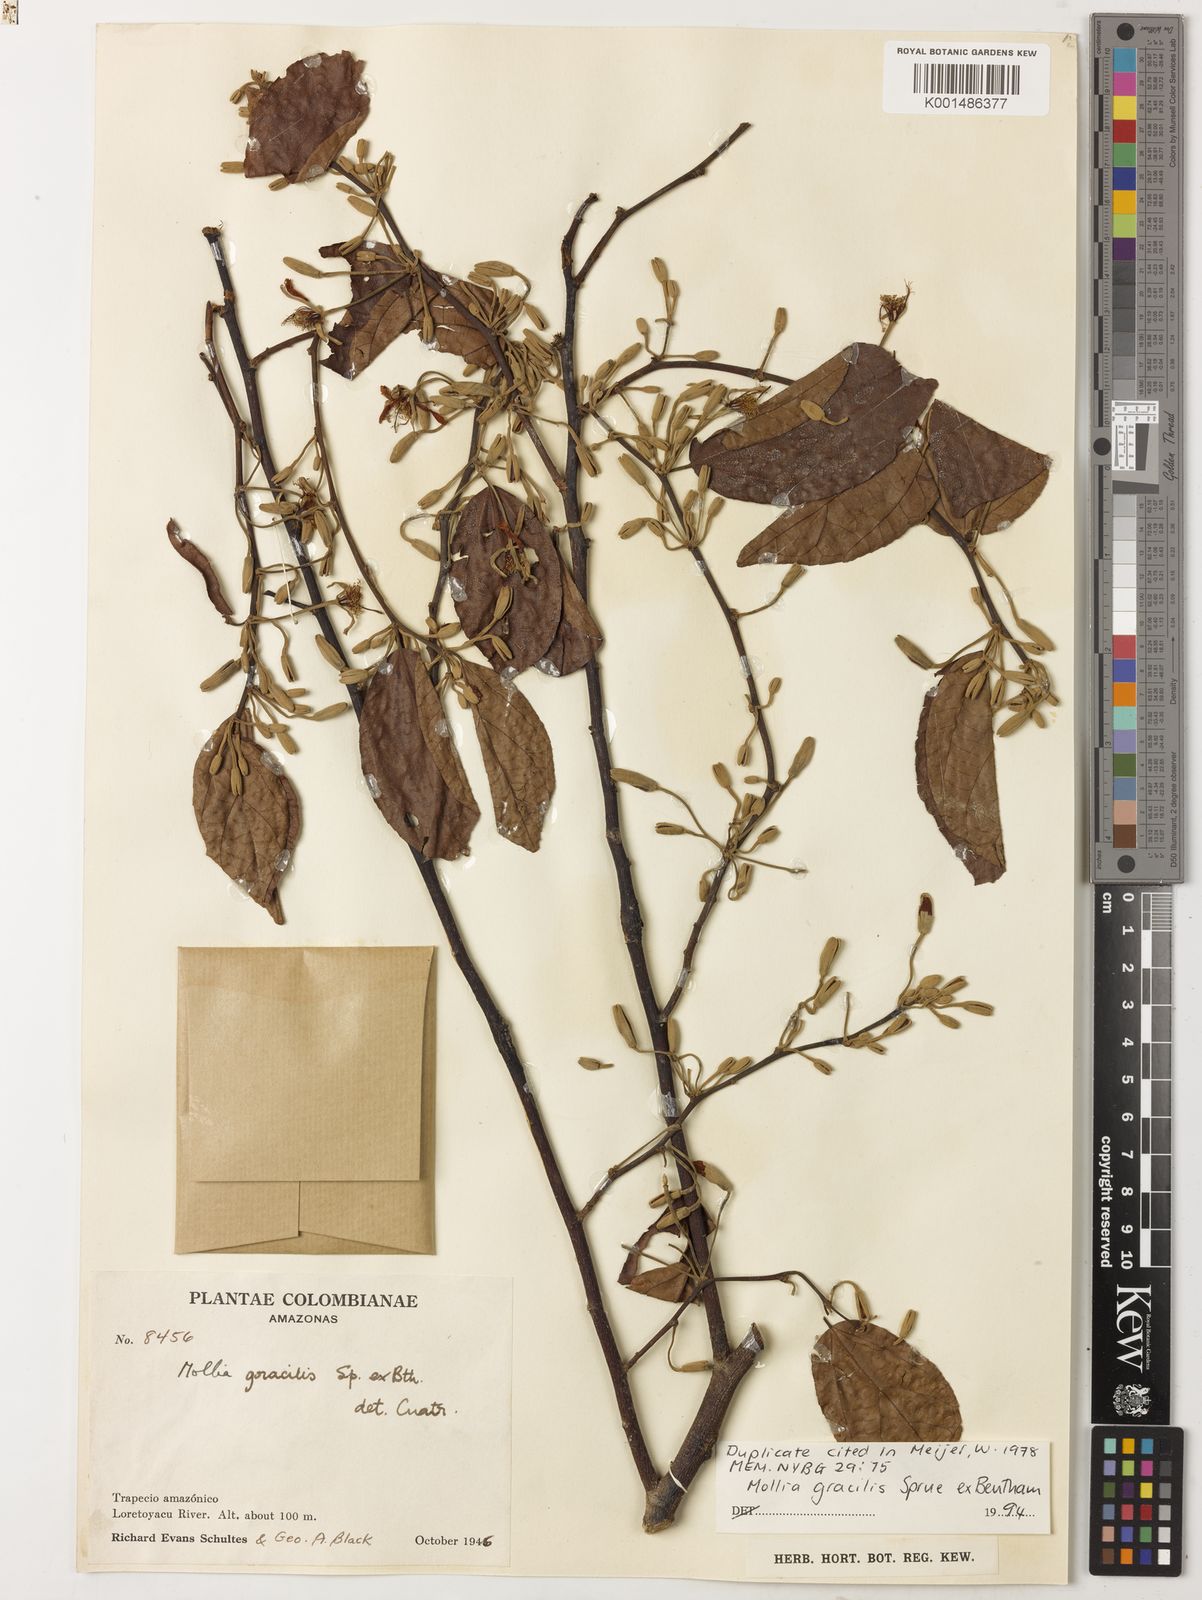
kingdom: Plantae
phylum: Tracheophyta
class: Magnoliopsida
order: Malvales
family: Malvaceae
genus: Mollia
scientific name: Mollia gracilis
